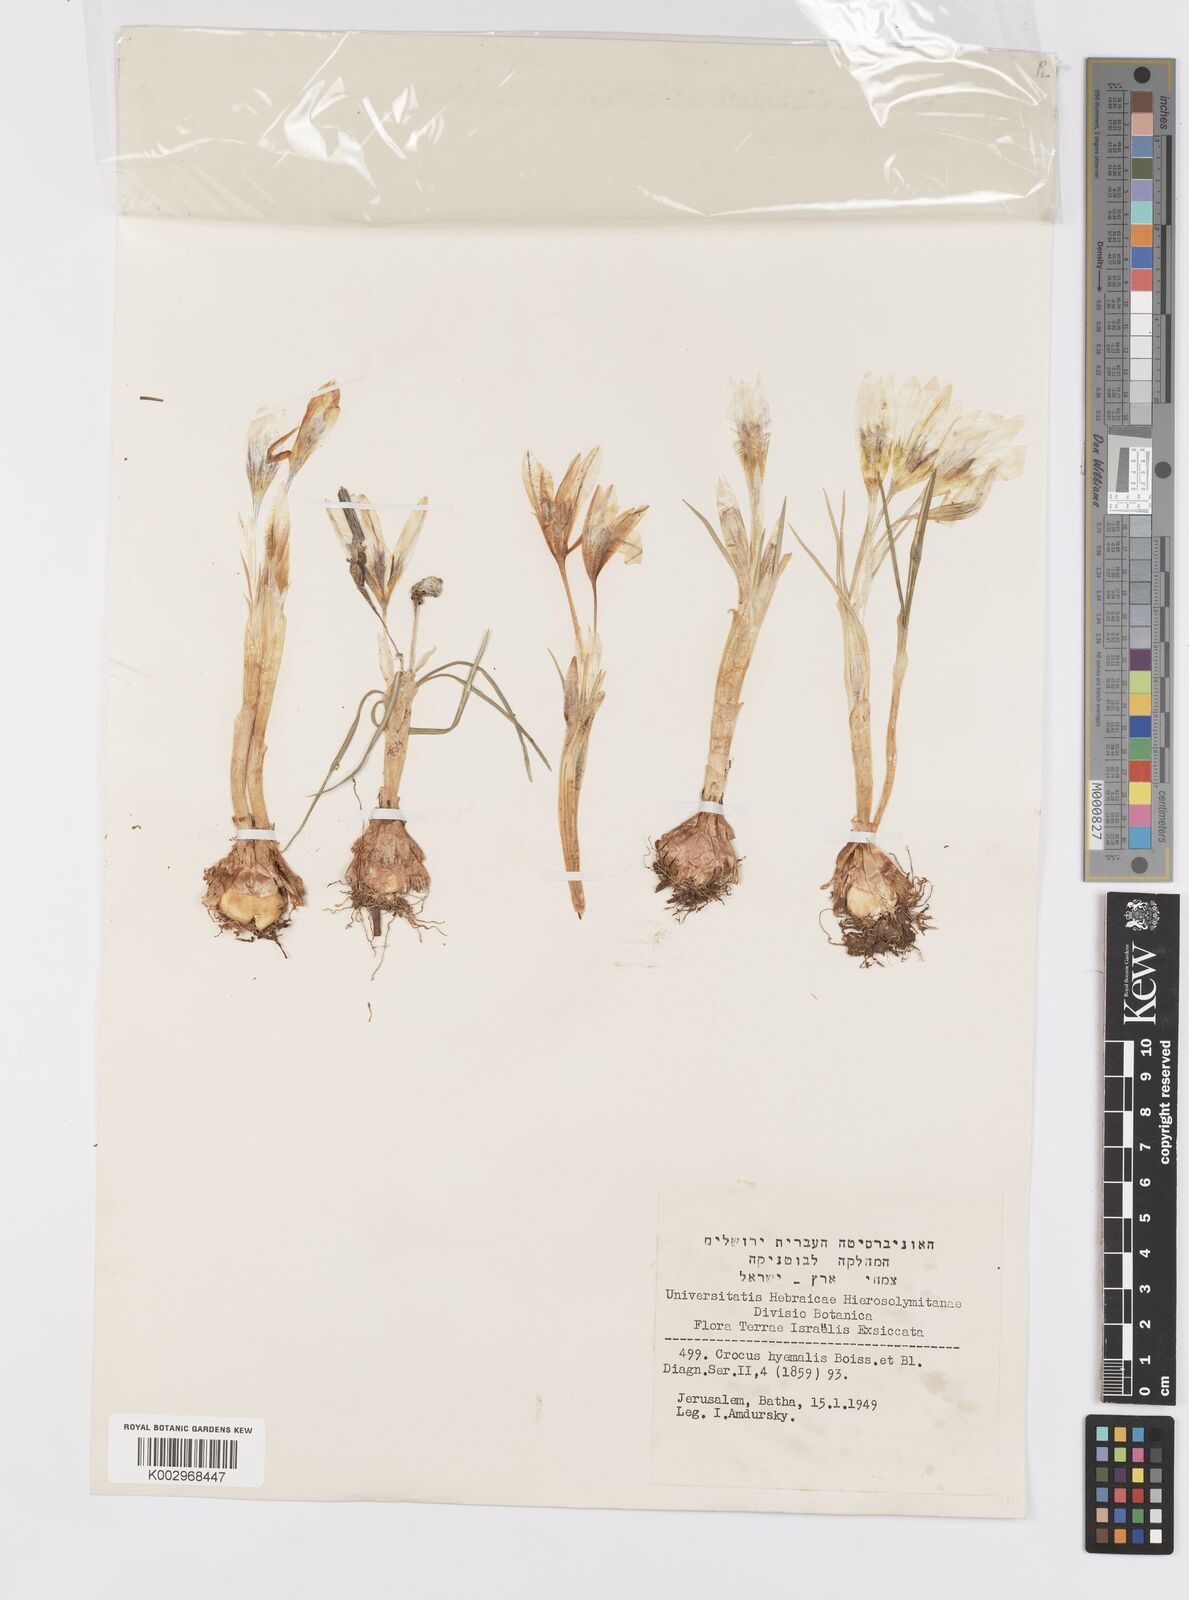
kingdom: Plantae
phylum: Tracheophyta
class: Liliopsida
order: Asparagales
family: Iridaceae
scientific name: Iridaceae
